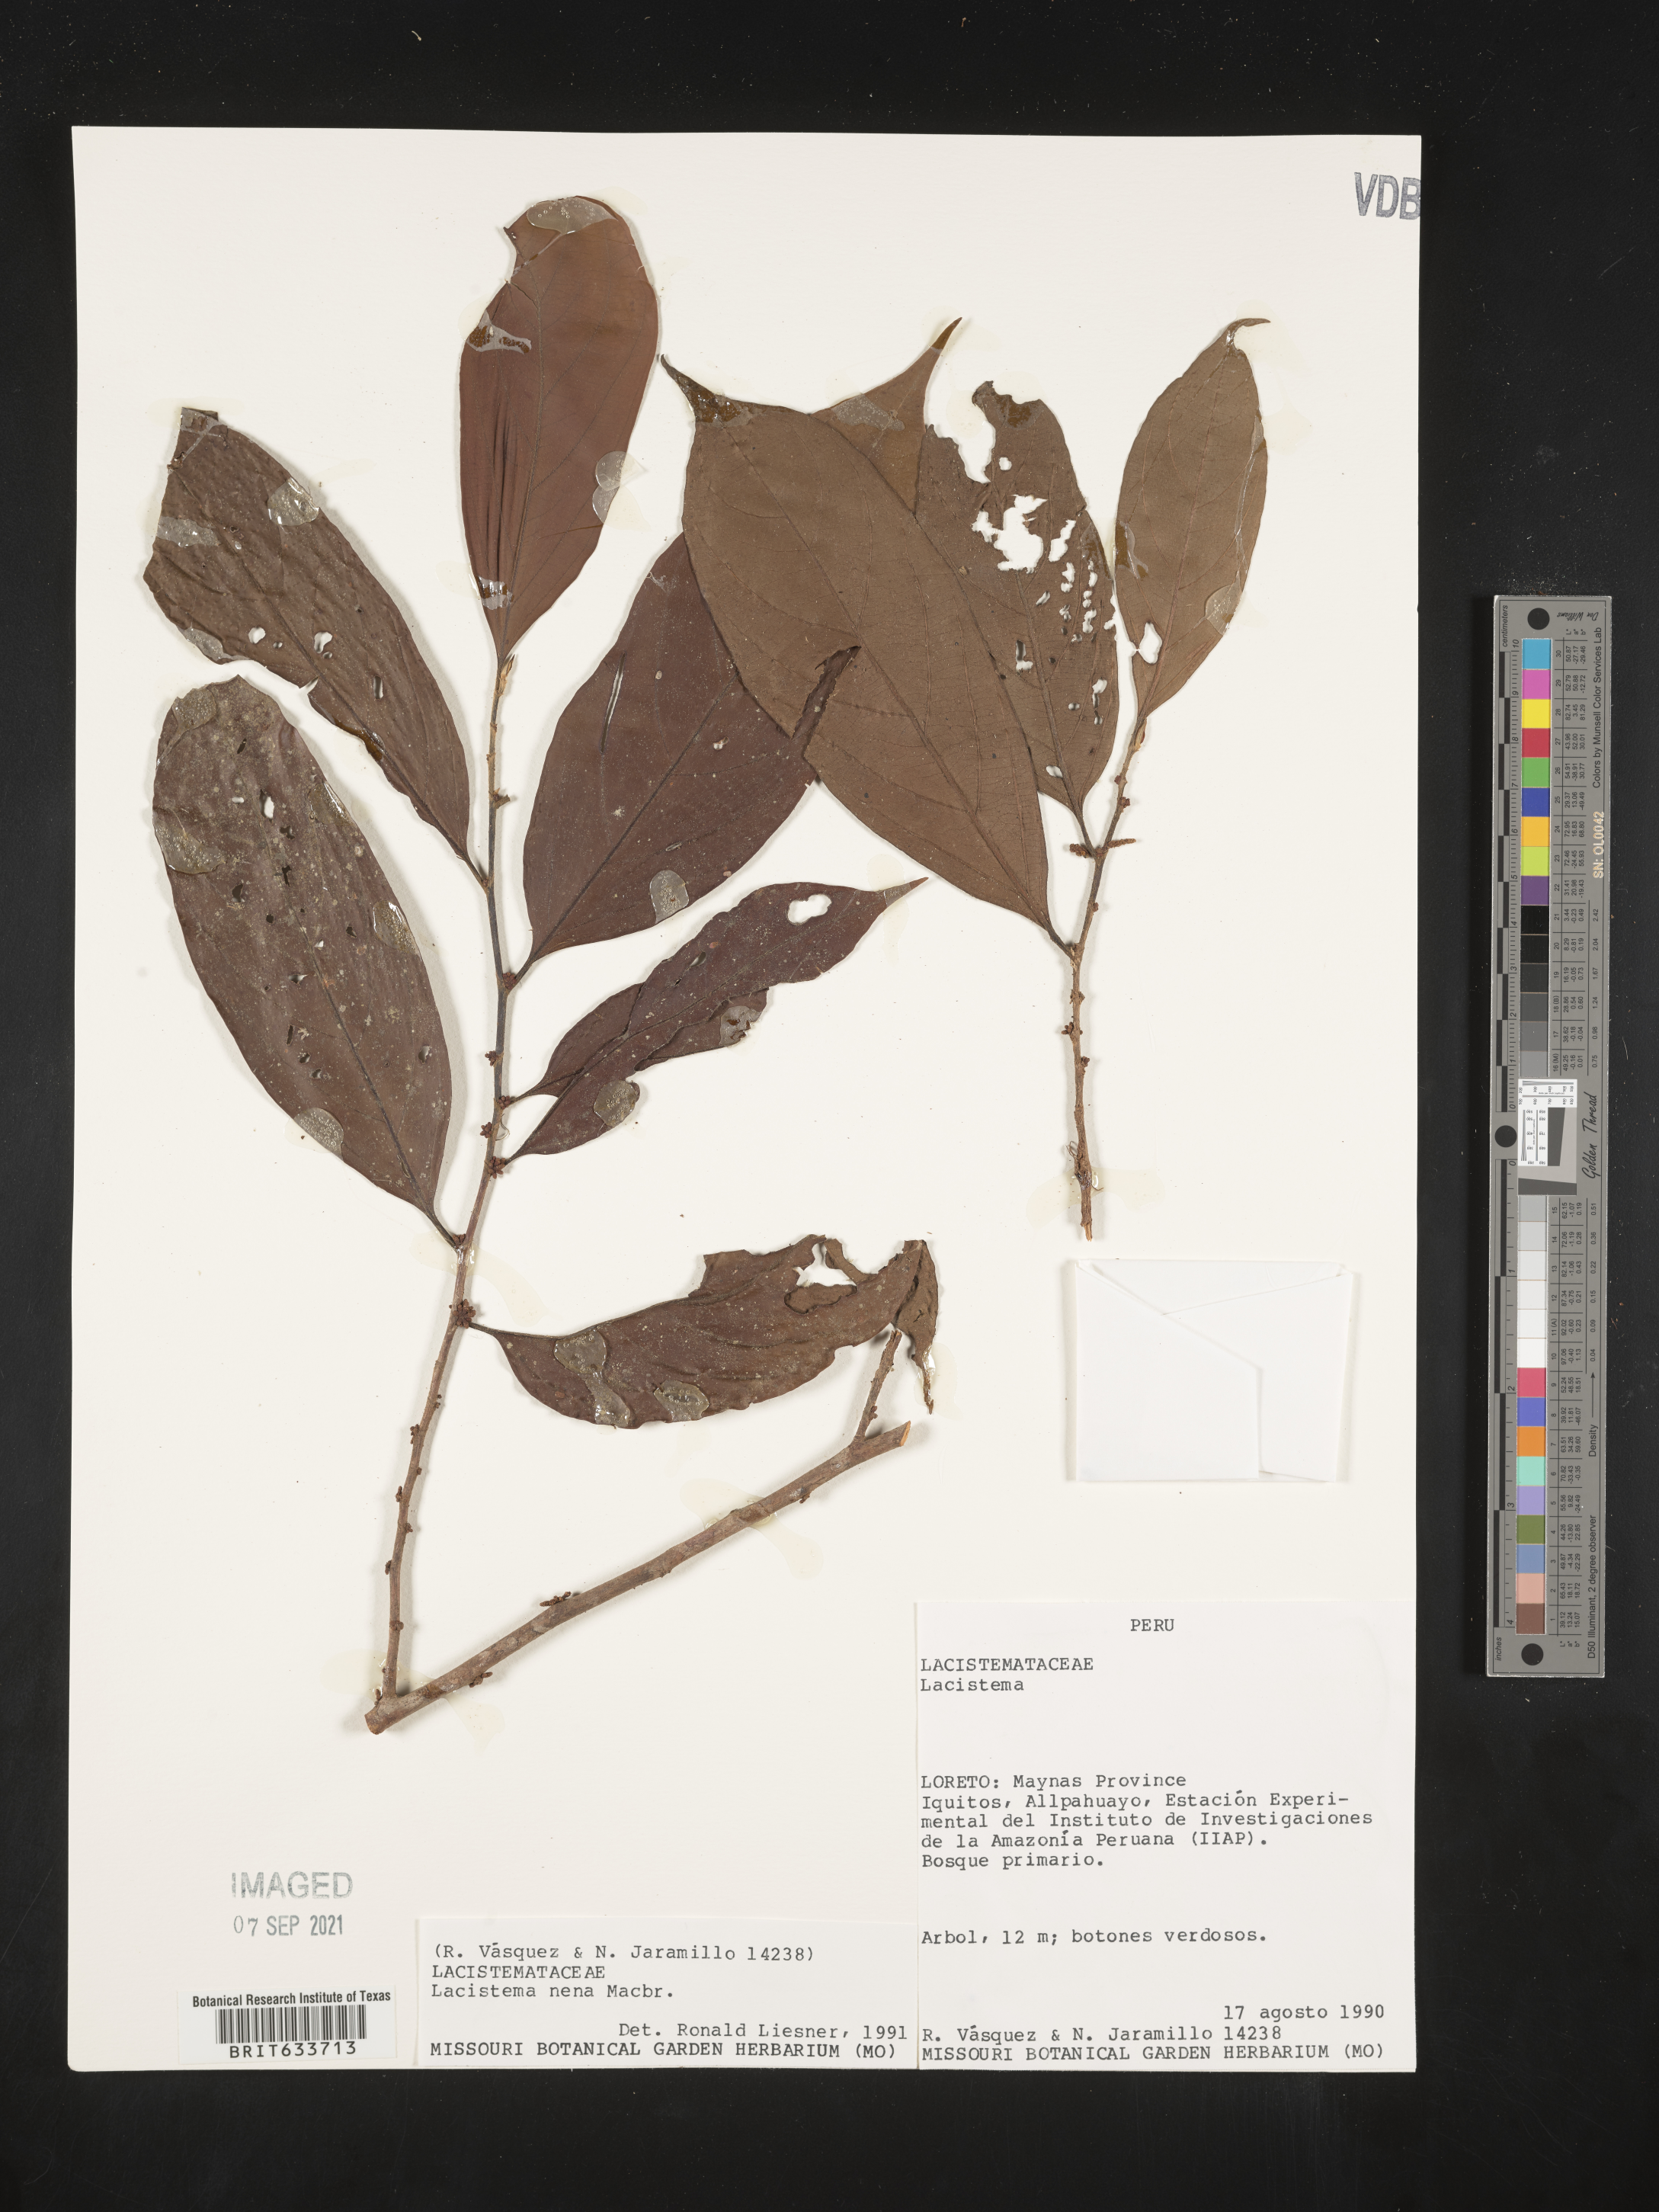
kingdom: Plantae
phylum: Tracheophyta
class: Magnoliopsida
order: Malpighiales
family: Lacistemataceae
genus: Lacistema
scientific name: Lacistema
